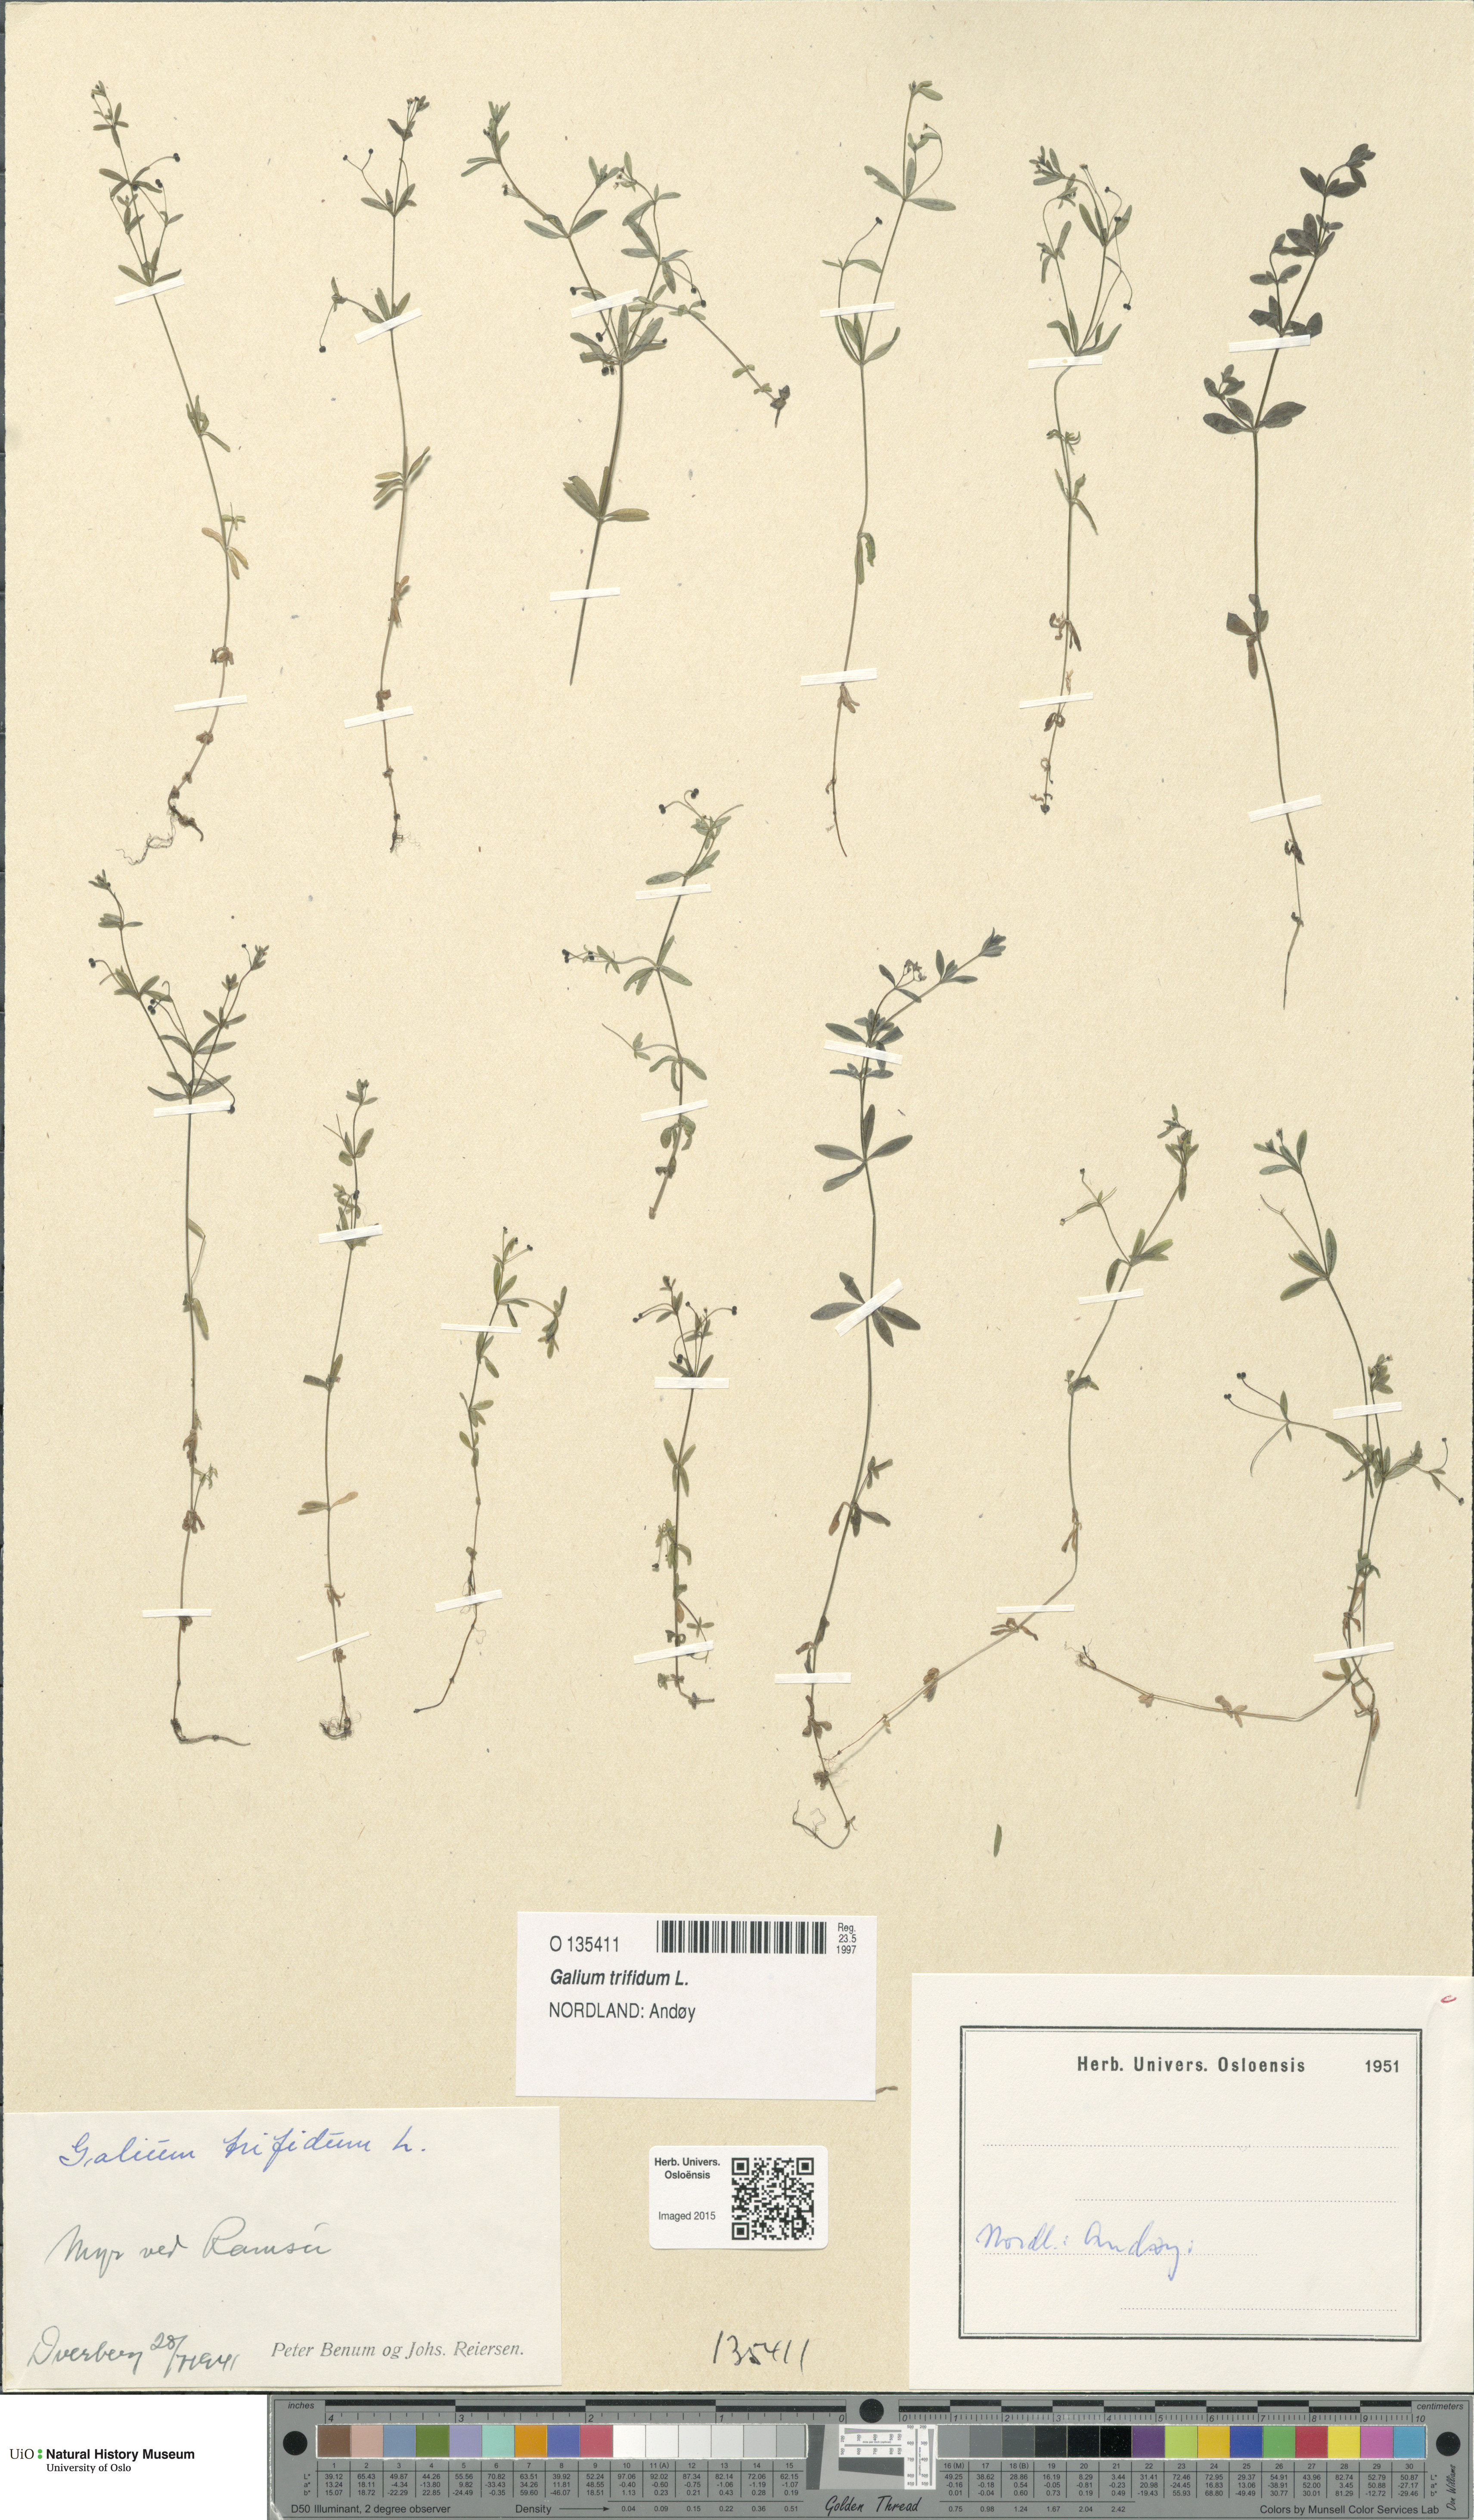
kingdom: Plantae
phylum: Tracheophyta
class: Magnoliopsida
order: Gentianales
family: Rubiaceae
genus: Galium
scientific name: Galium trifidum
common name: Small bedstraw
